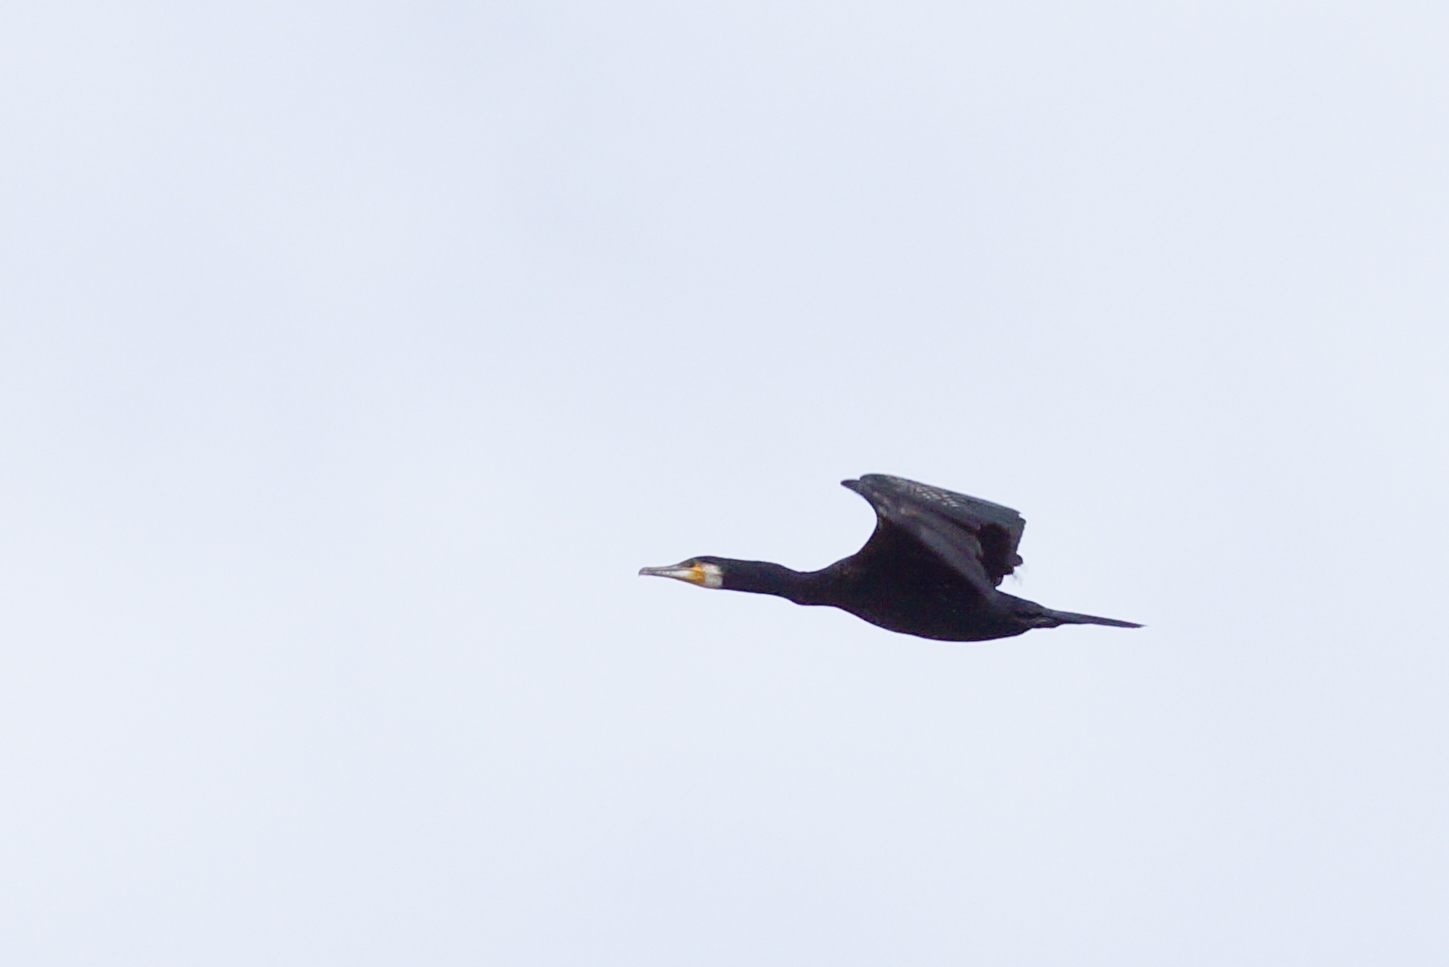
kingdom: Animalia
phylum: Chordata
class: Aves
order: Suliformes
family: Phalacrocoracidae
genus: Phalacrocorax
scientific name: Phalacrocorax carbo
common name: Skarv
